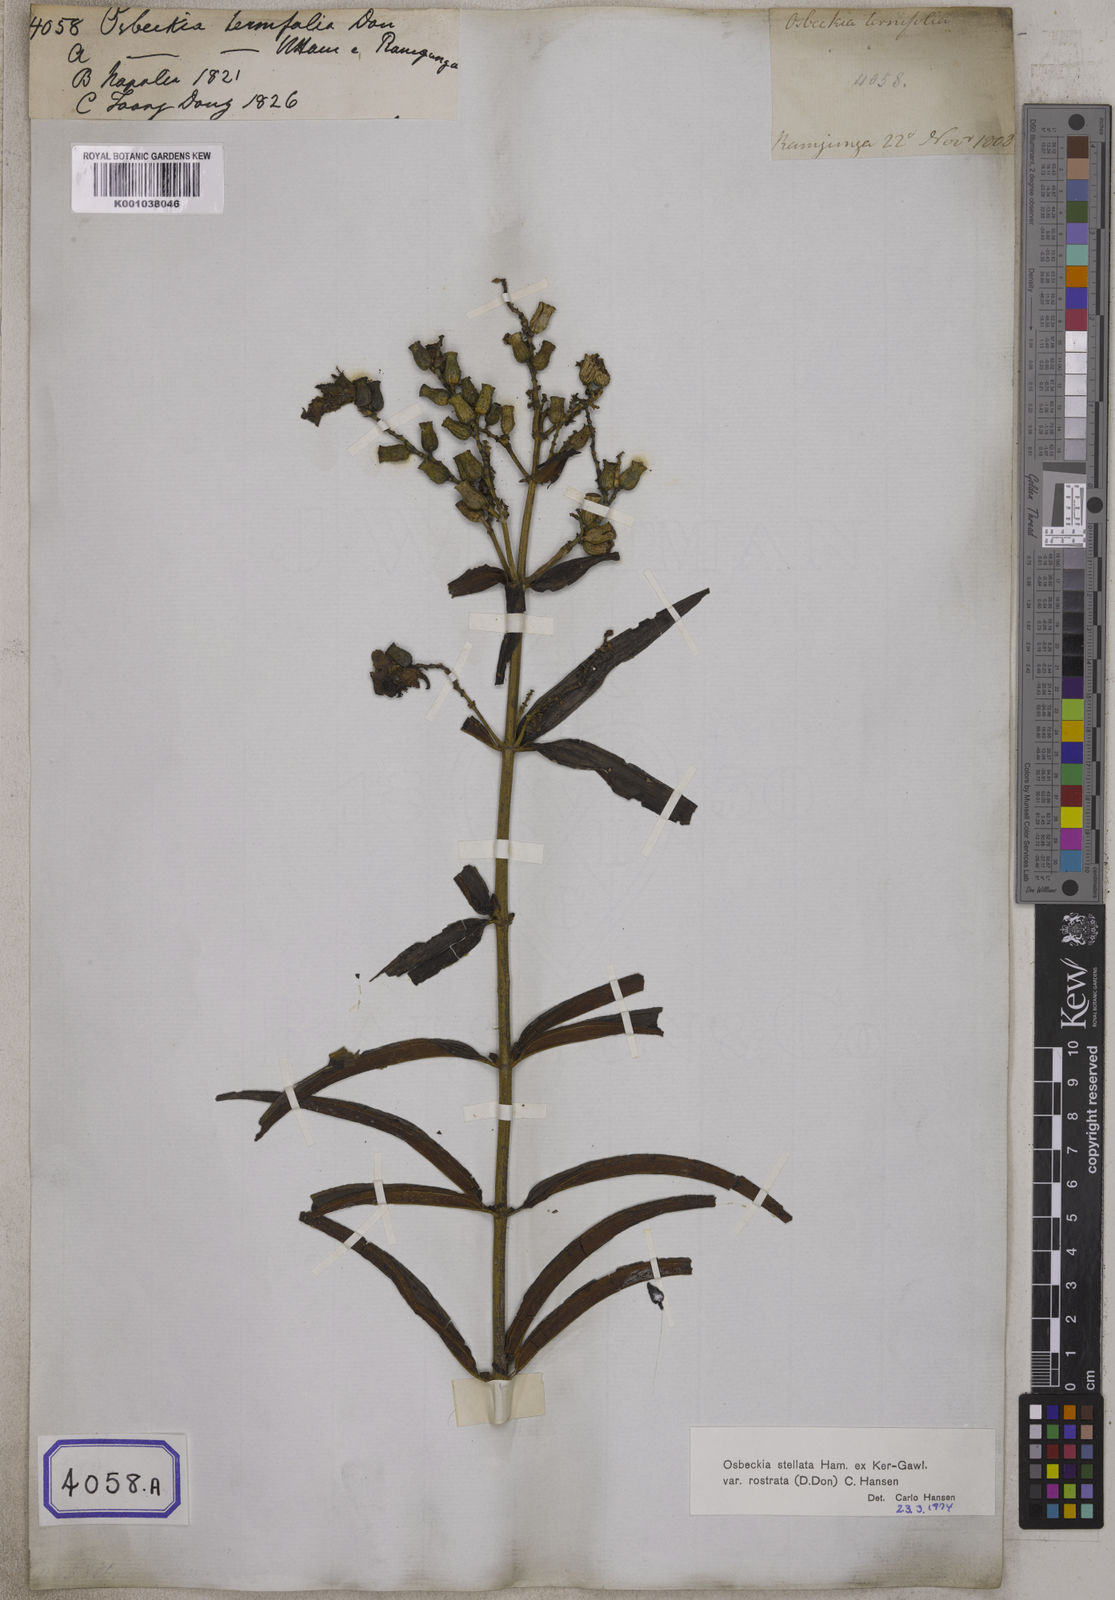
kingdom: Plantae
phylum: Tracheophyta
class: Magnoliopsida
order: Myrtales
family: Melastomataceae
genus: Osbeckia
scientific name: Osbeckia rostrata
